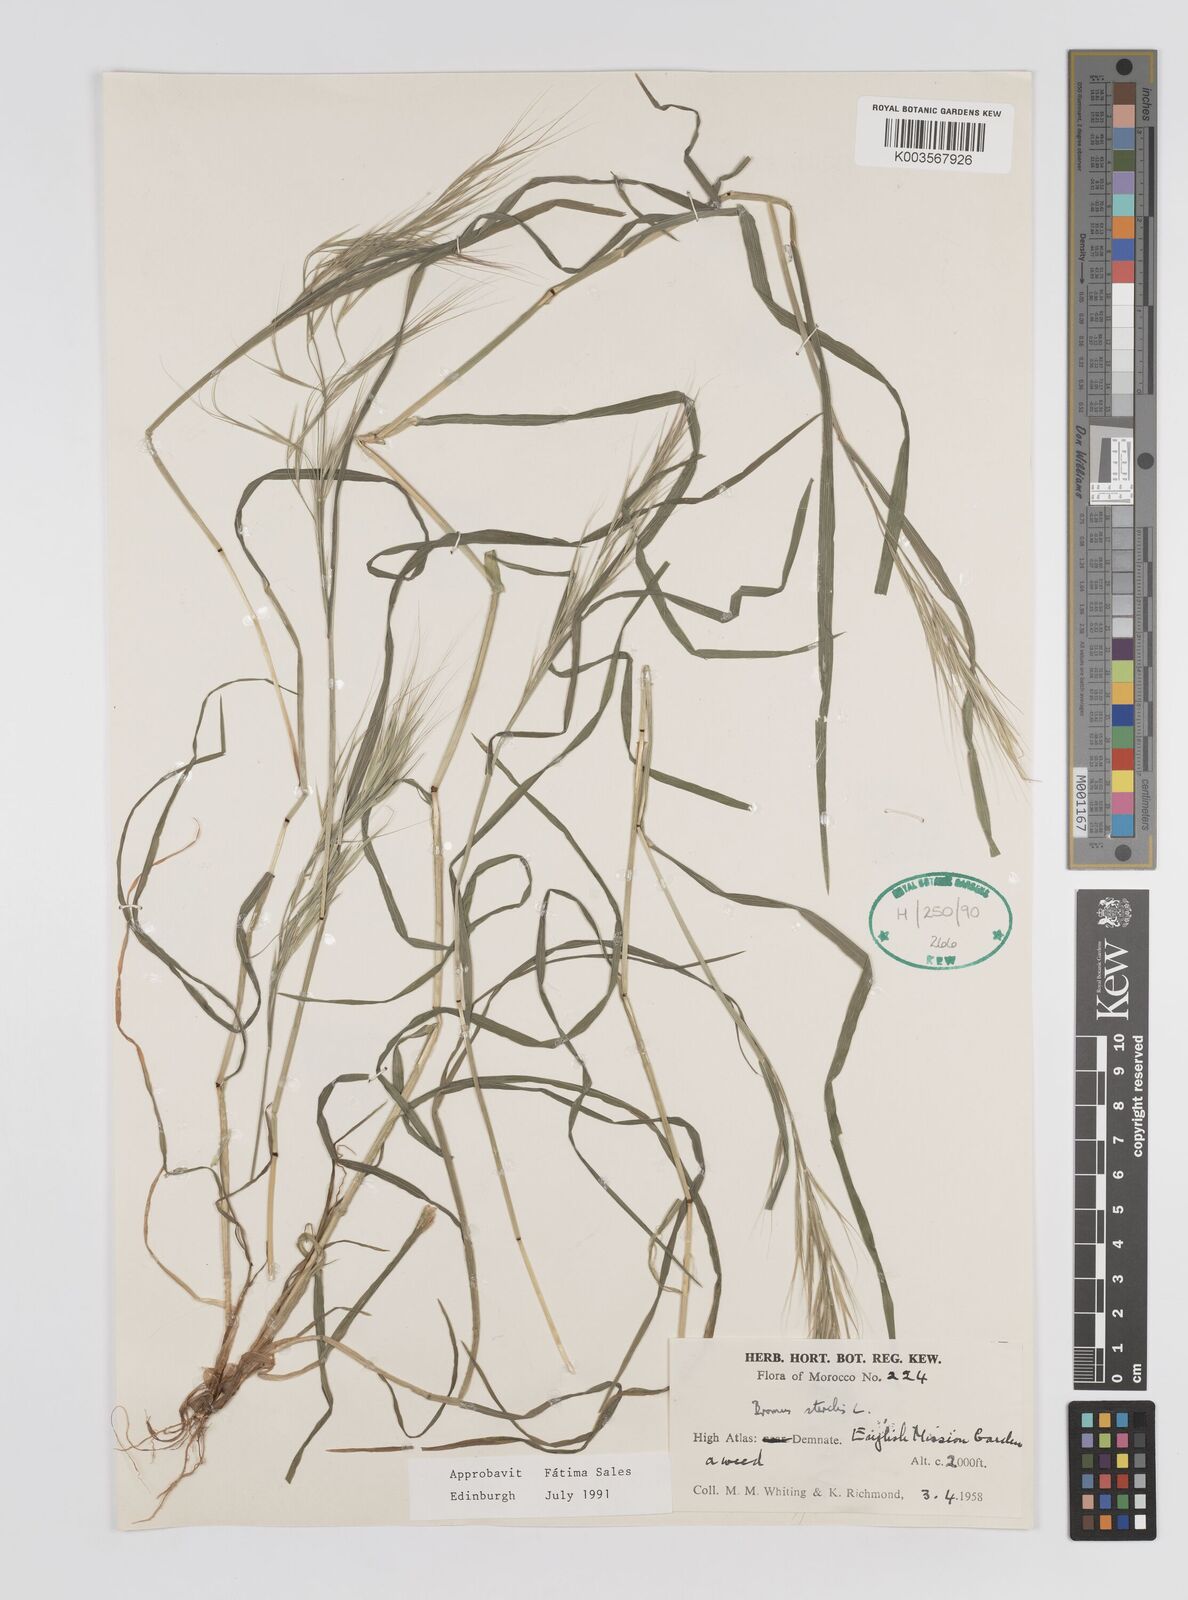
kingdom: Plantae
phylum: Tracheophyta
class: Liliopsida
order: Poales
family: Poaceae
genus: Bromus
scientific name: Bromus sterilis
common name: Poverty brome
